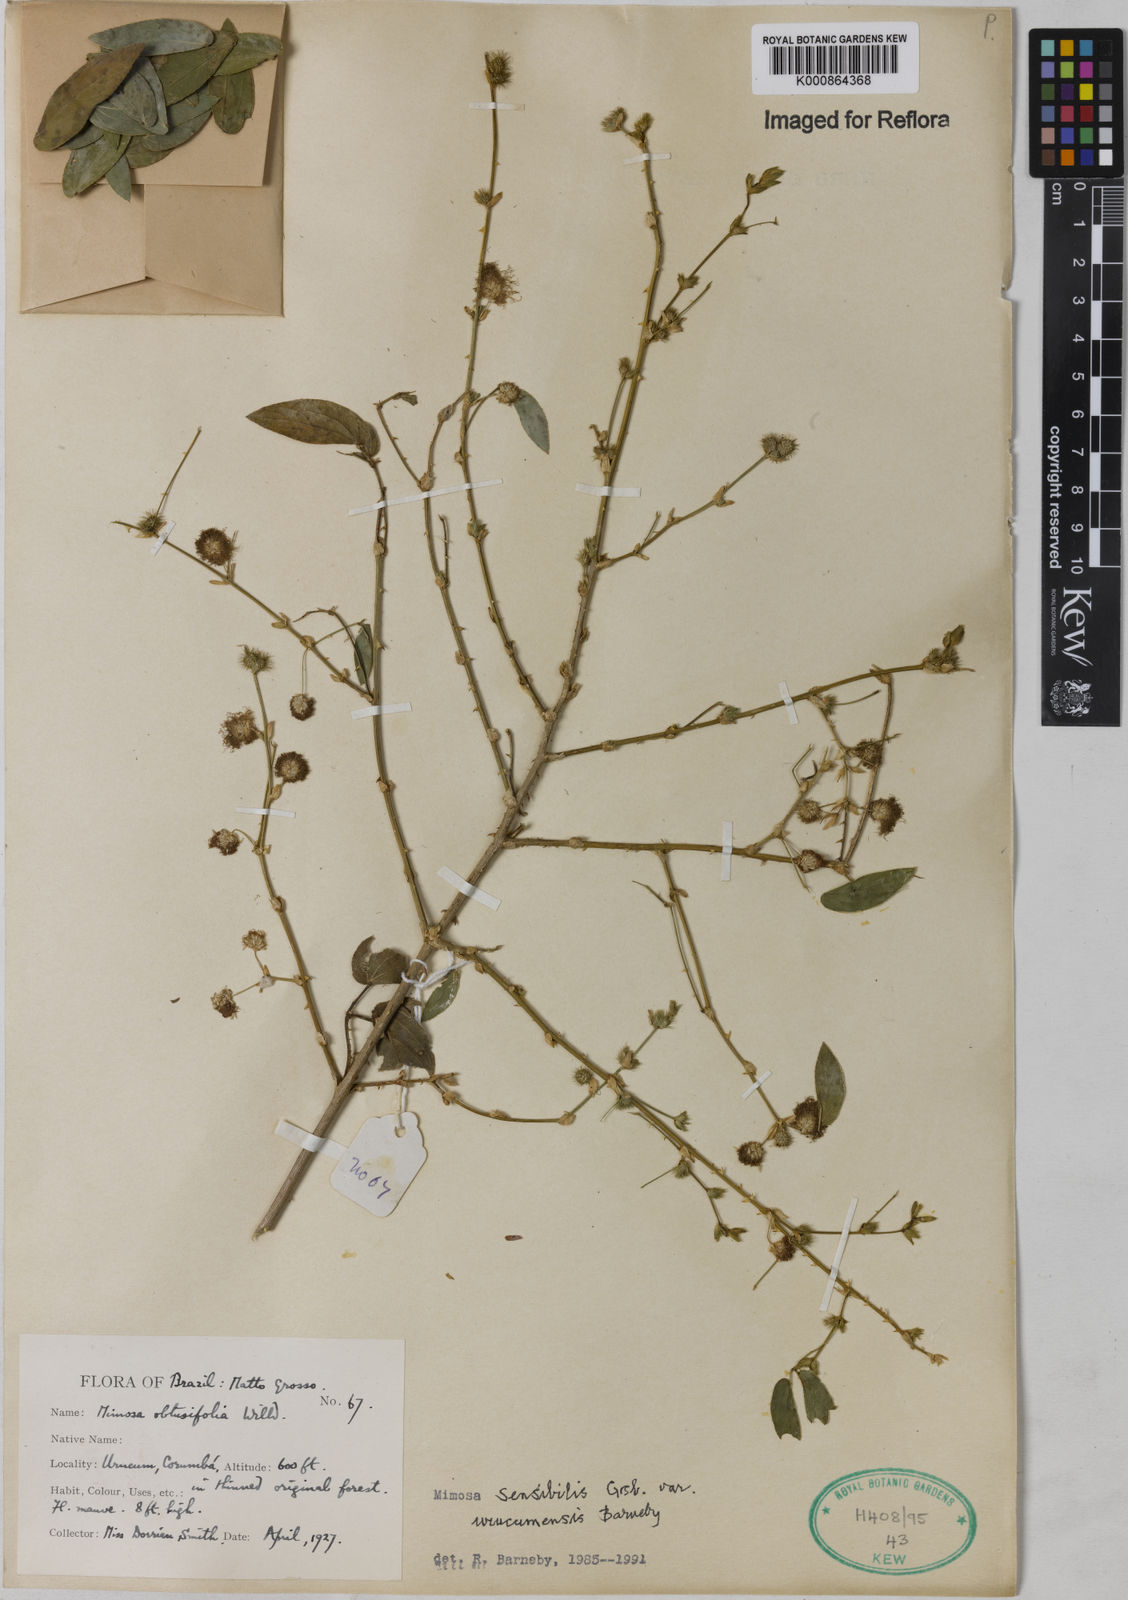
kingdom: Plantae
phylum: Tracheophyta
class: Magnoliopsida
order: Fabales
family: Fabaceae
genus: Mimosa
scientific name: Mimosa sensibilis
